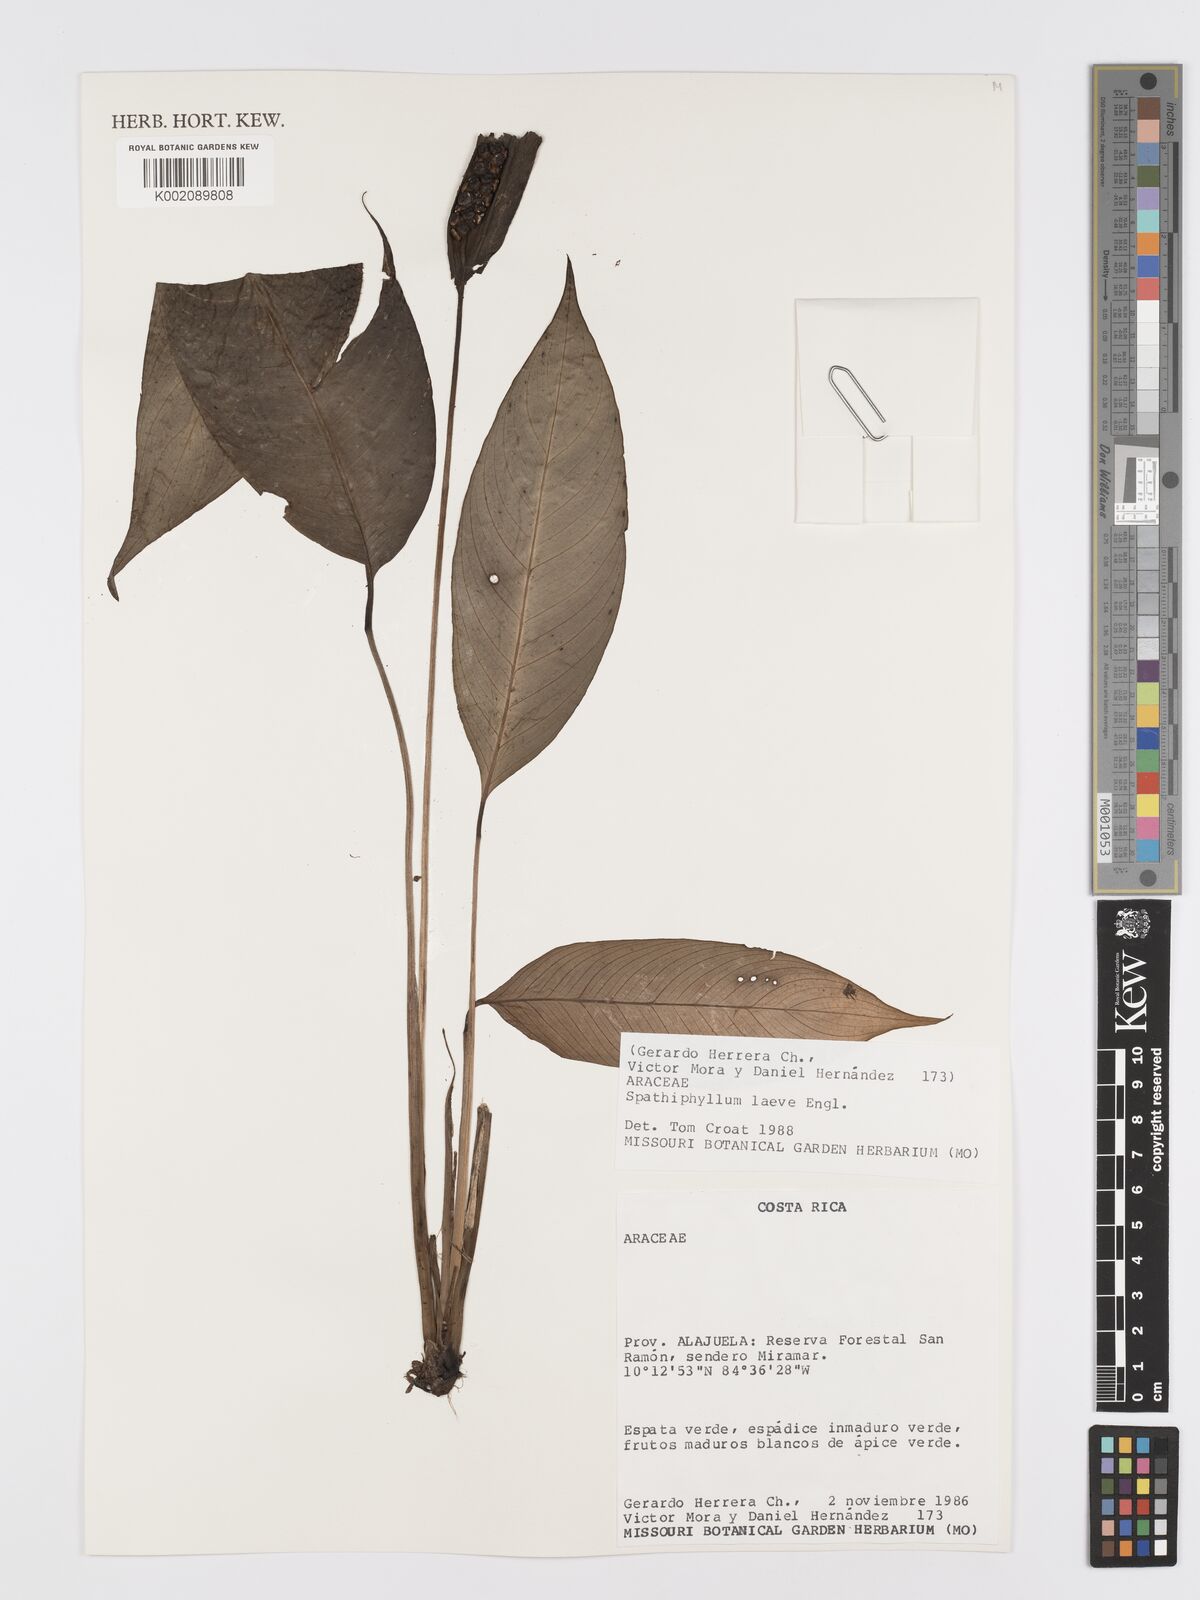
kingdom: Plantae
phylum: Tracheophyta
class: Liliopsida
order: Alismatales
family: Araceae
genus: Spathiphyllum
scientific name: Spathiphyllum laeve
